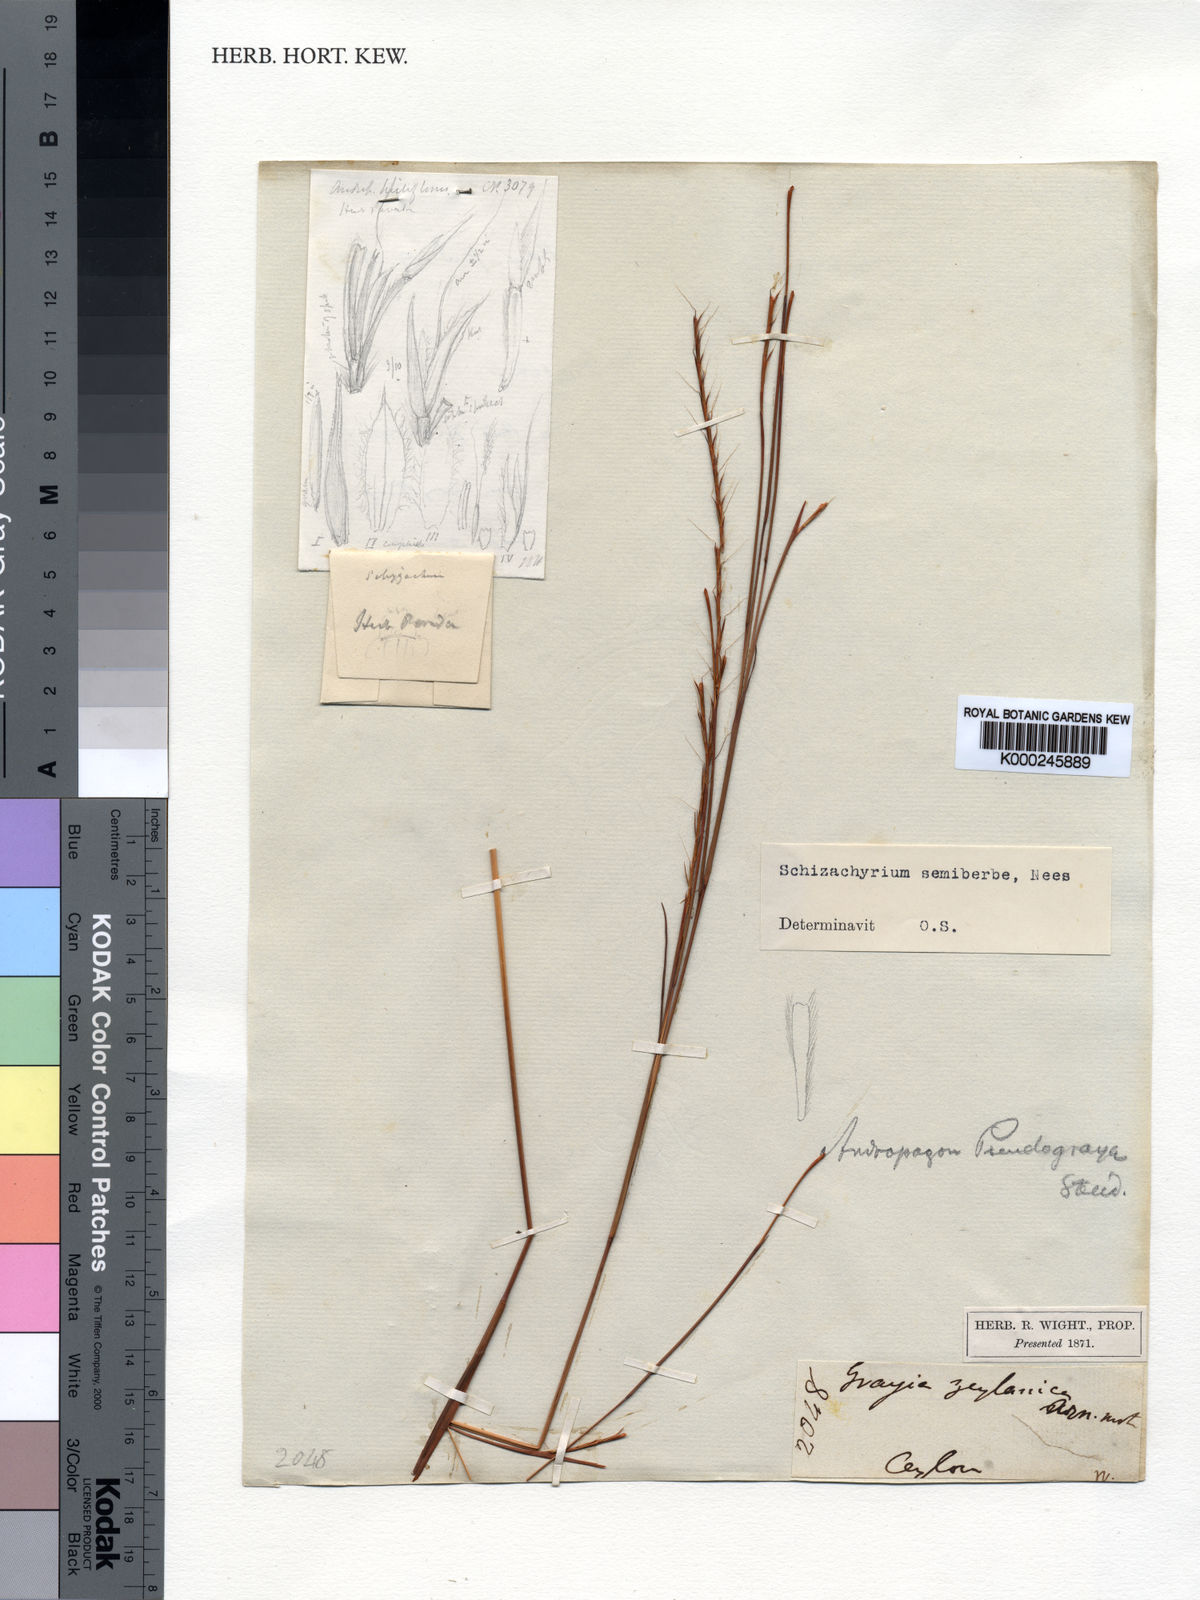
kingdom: Plantae
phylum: Tracheophyta
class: Liliopsida
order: Poales
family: Poaceae
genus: Schizachyrium
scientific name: Schizachyrium sanguineum
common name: Crimson bluestem
